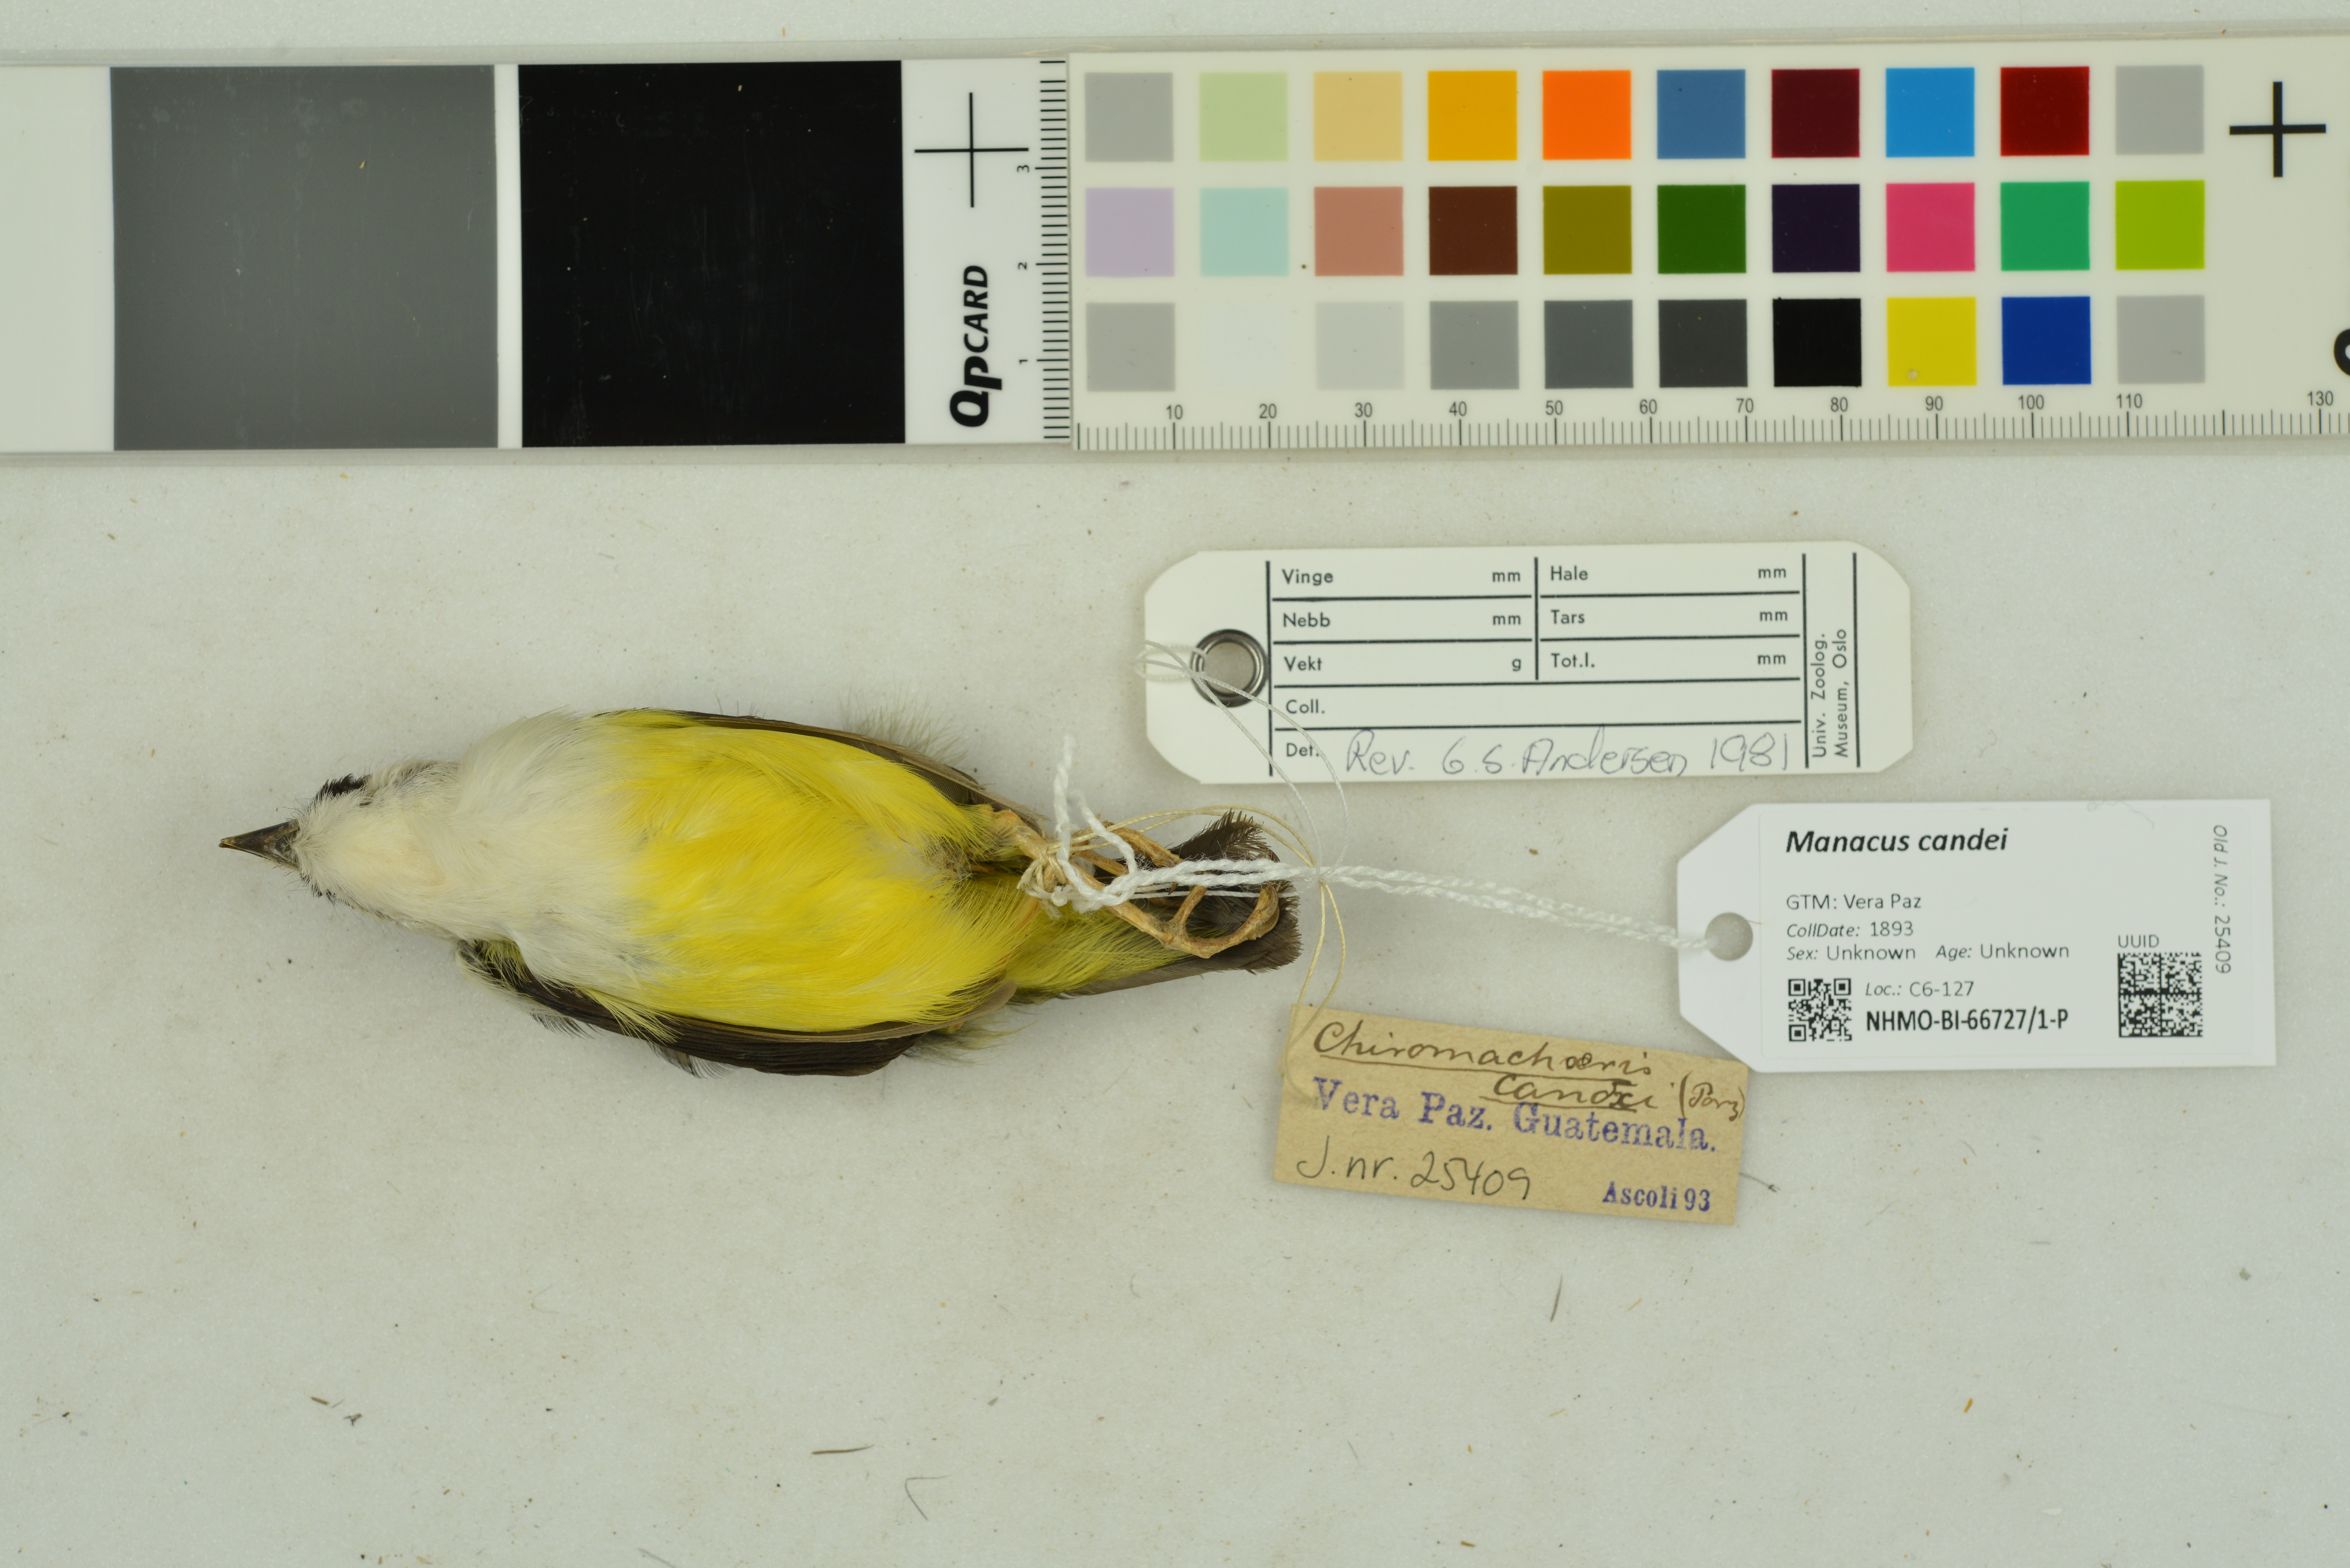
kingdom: Animalia
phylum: Chordata
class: Aves
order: Passeriformes
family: Pipridae
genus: Manacus
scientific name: Manacus candei
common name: White-collared manakin
